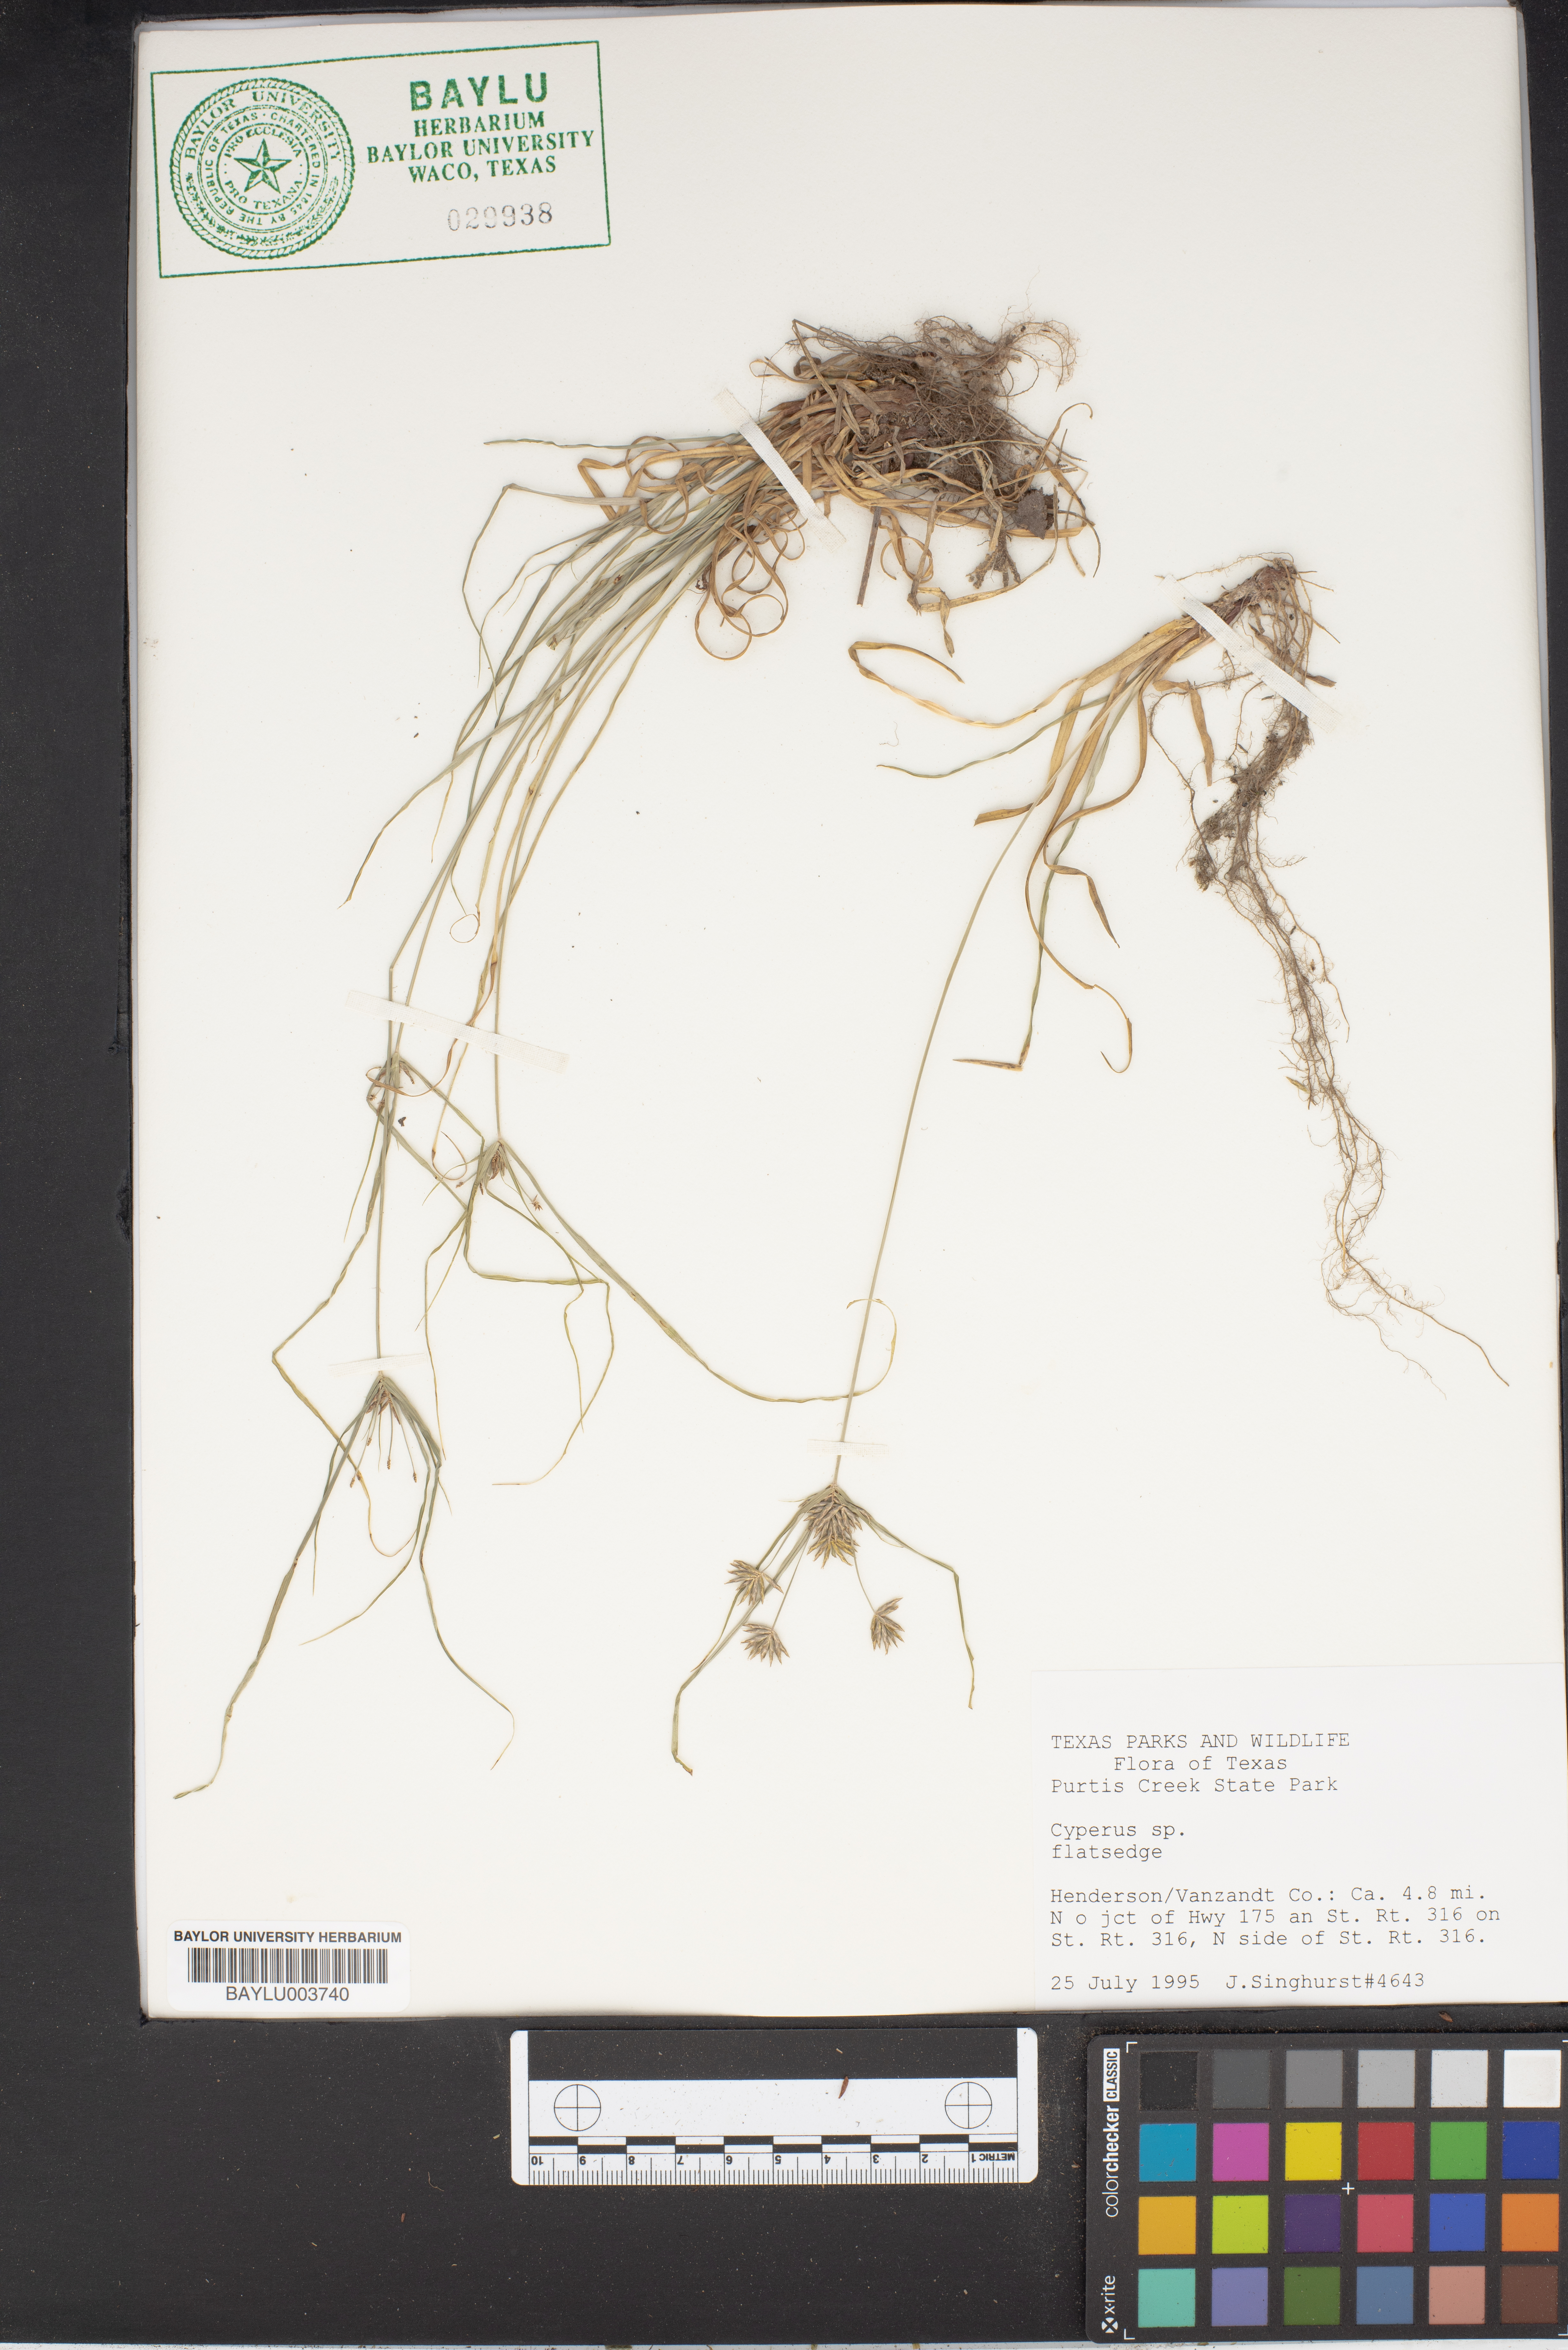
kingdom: Plantae
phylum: Tracheophyta
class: Liliopsida
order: Poales
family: Cyperaceae
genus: Cyperus
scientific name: Cyperus
